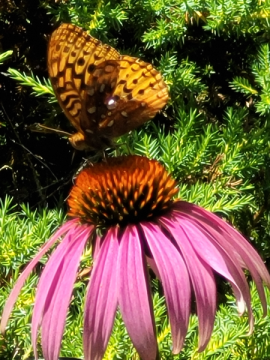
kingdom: Animalia
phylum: Arthropoda
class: Insecta
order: Lepidoptera
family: Nymphalidae
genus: Speyeria
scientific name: Speyeria cybele
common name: Great Spangled Fritillary
